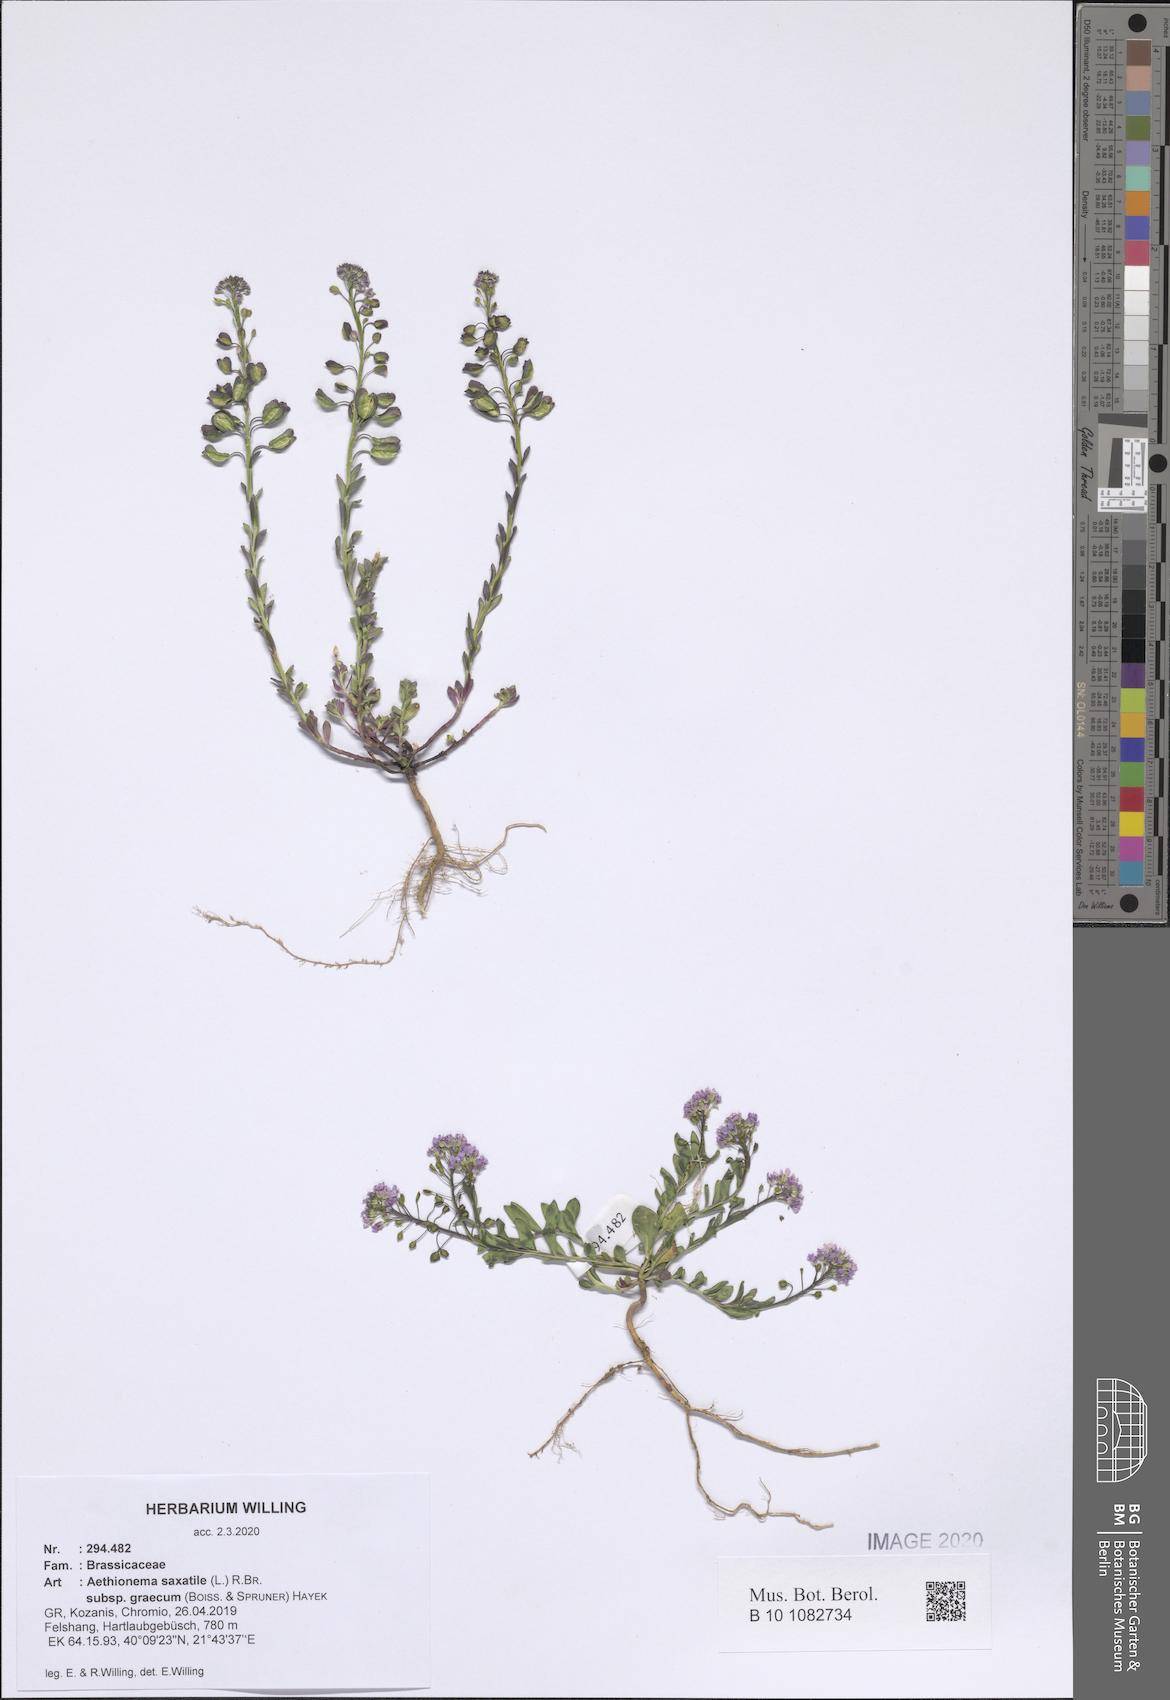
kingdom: Plantae
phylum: Tracheophyta
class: Magnoliopsida
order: Brassicales
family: Brassicaceae
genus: Aethionema
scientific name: Aethionema saxatile
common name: Burnt candytuft
